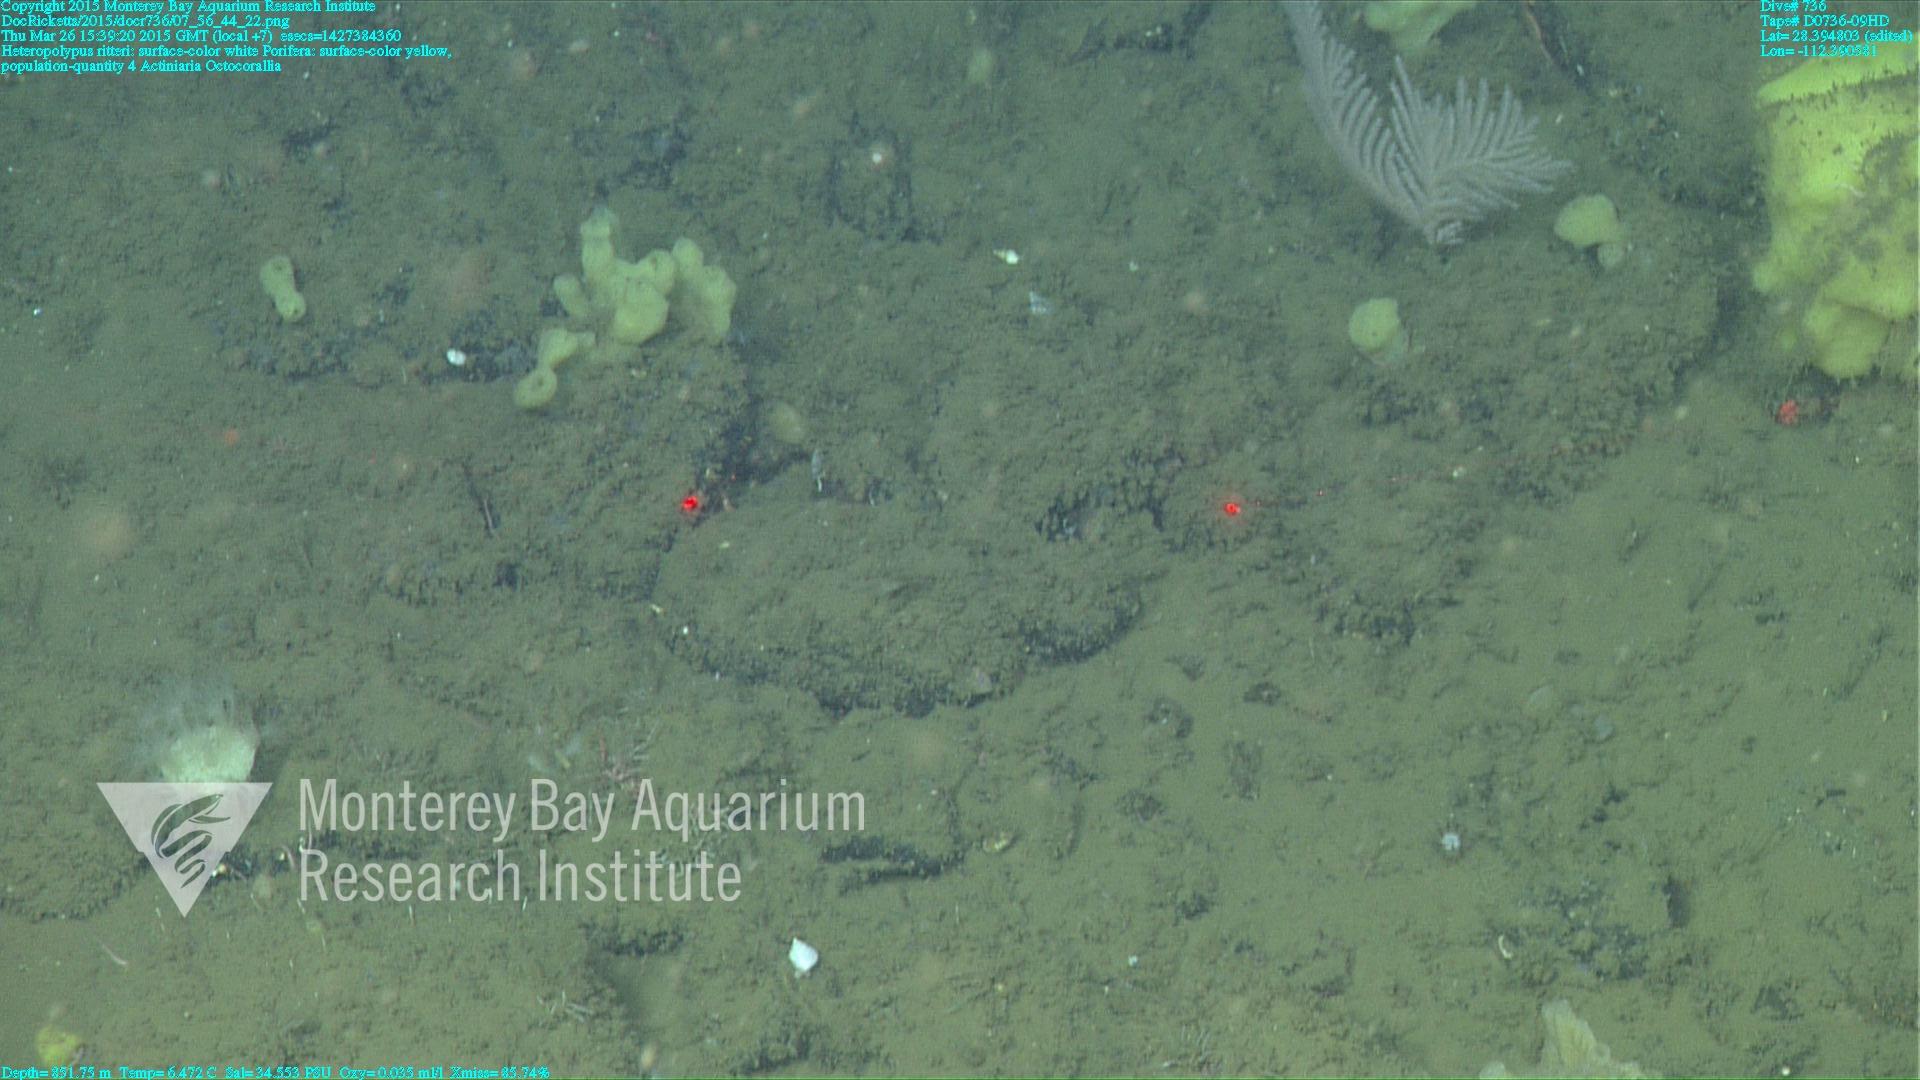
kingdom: Animalia
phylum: Cnidaria
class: Anthozoa
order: Scleralcyonacea
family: Coralliidae
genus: Heteropolypus
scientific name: Heteropolypus ritteri
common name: Ritter's soft coral
